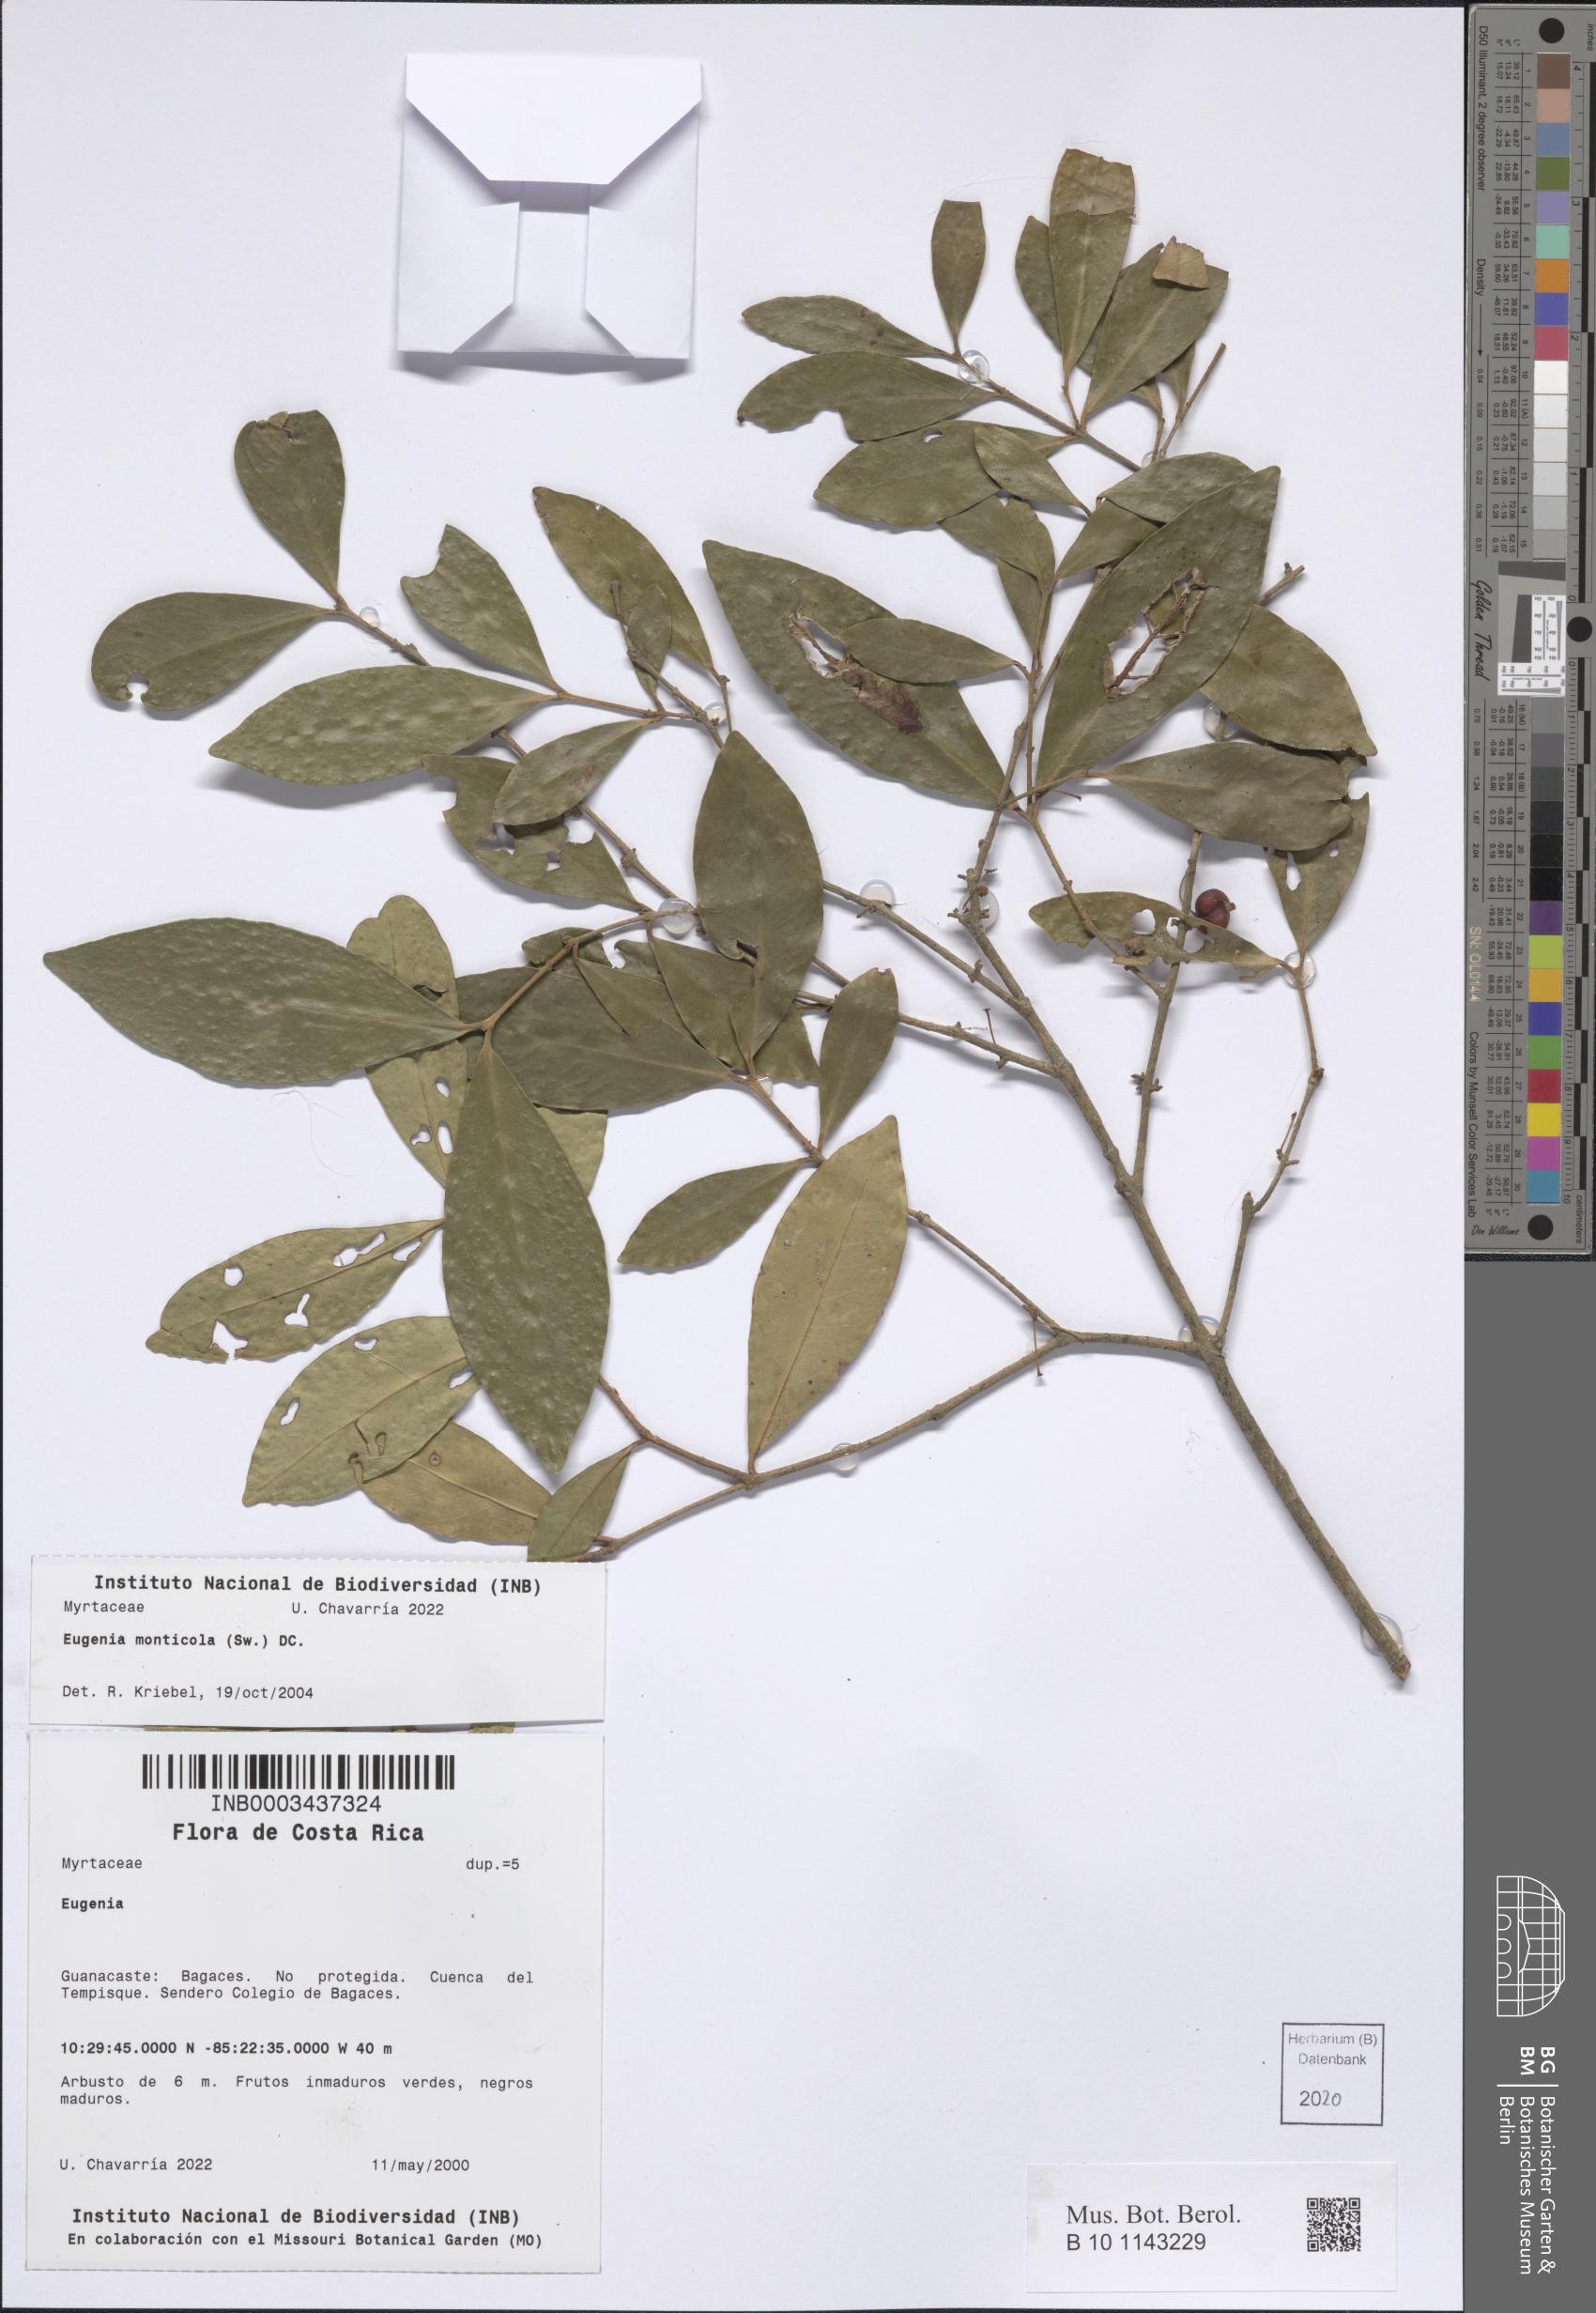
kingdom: Plantae
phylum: Tracheophyta
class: Magnoliopsida
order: Myrtales
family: Myrtaceae
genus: Eugenia
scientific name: Eugenia monticola
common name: Birds berry
